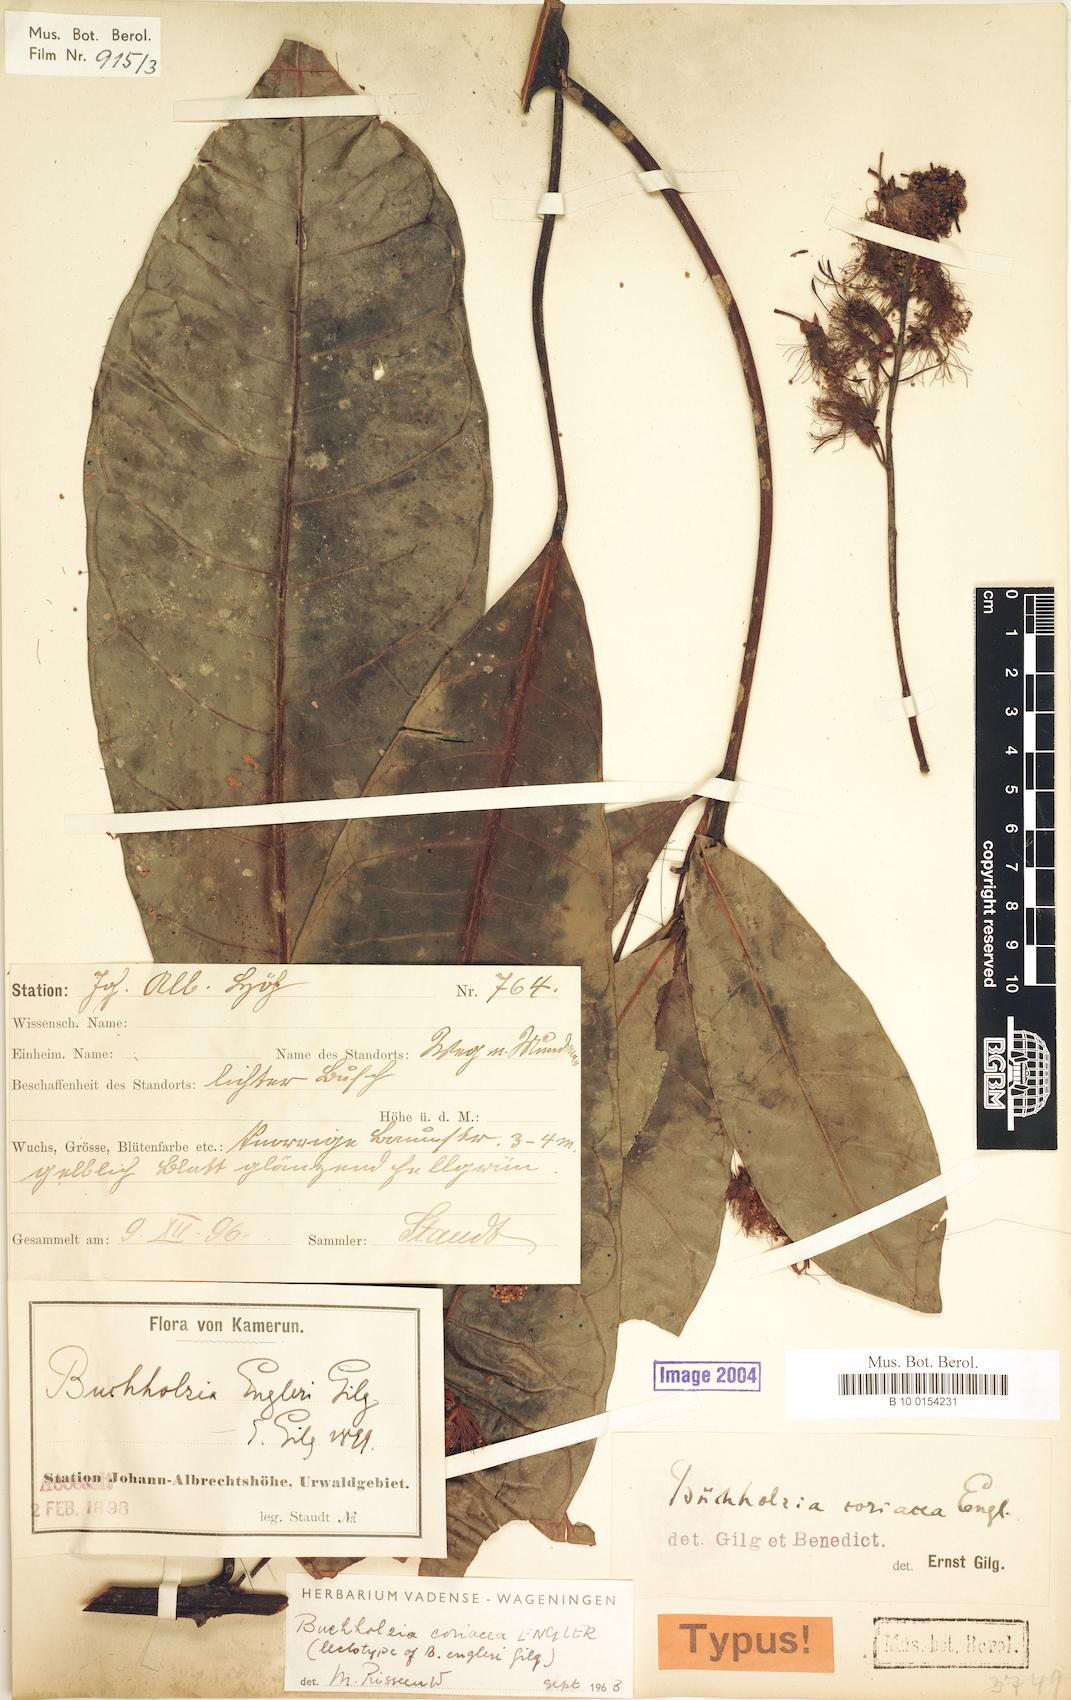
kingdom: Plantae
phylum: Tracheophyta
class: Magnoliopsida
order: Brassicales
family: Capparaceae
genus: Buchholzia
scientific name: Buchholzia coriacea
